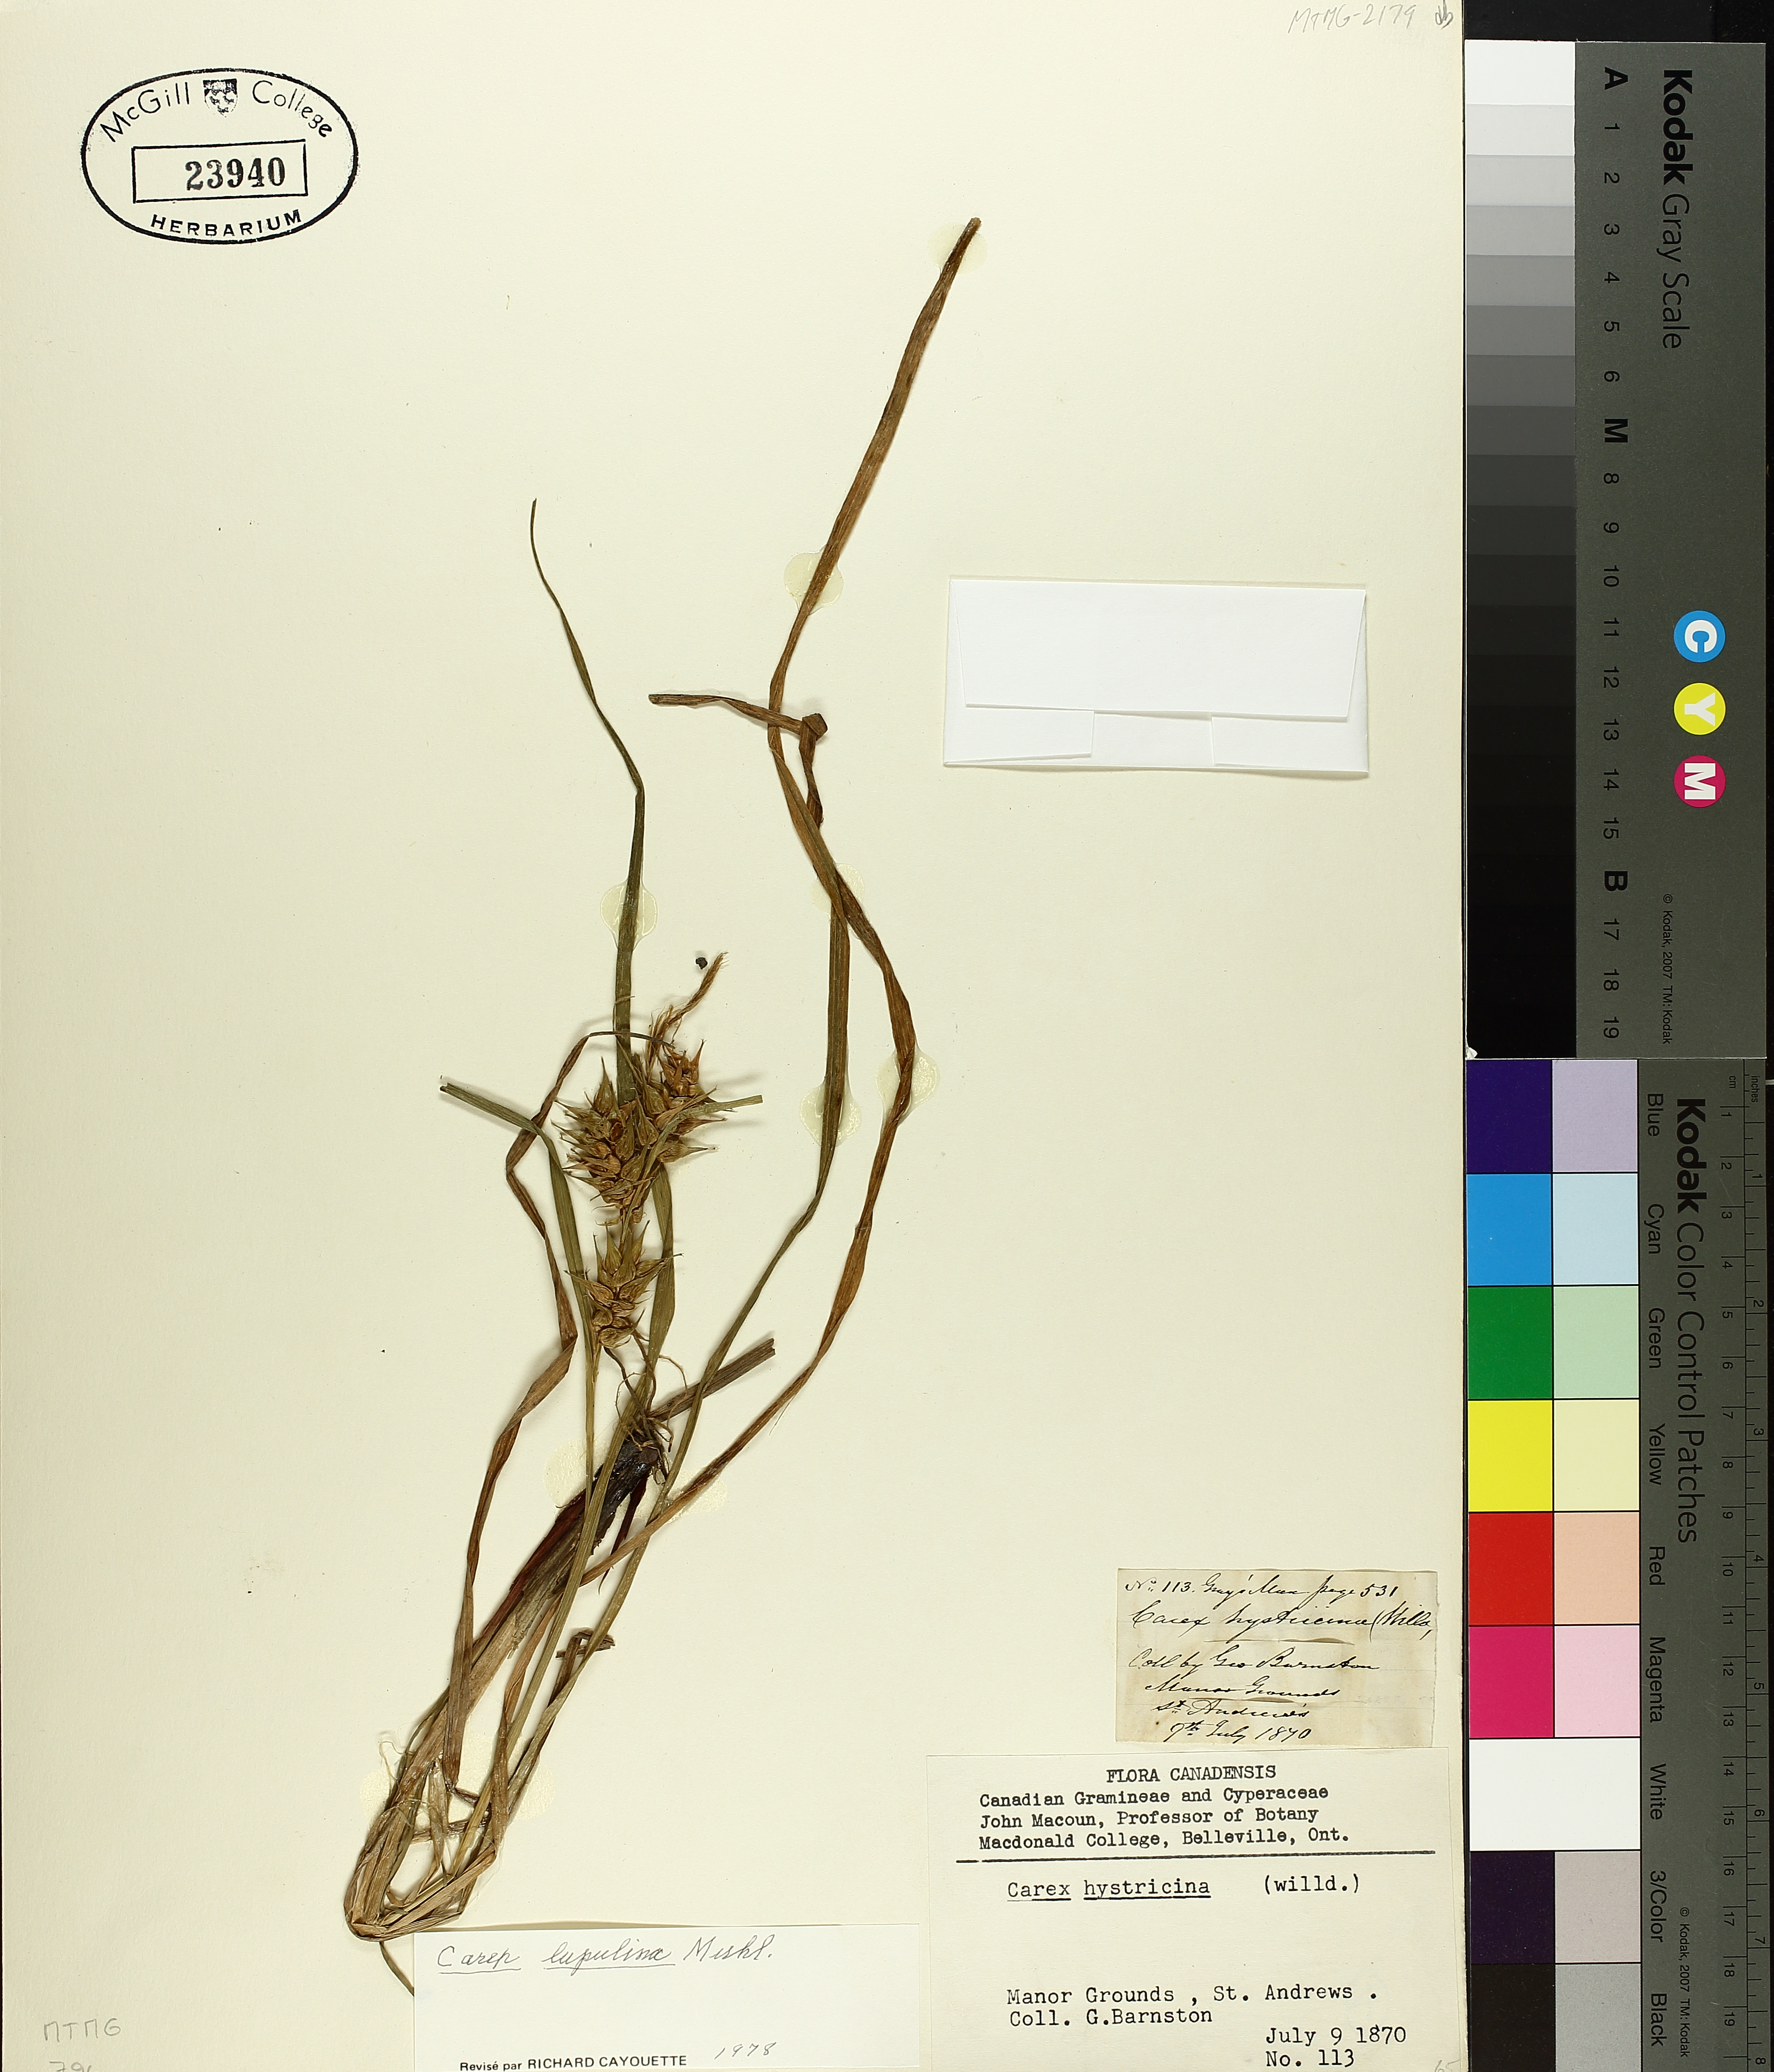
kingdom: Plantae
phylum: Tracheophyta
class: Liliopsida
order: Poales
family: Cyperaceae
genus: Carex
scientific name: Carex lupulina
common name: Hop sedge
